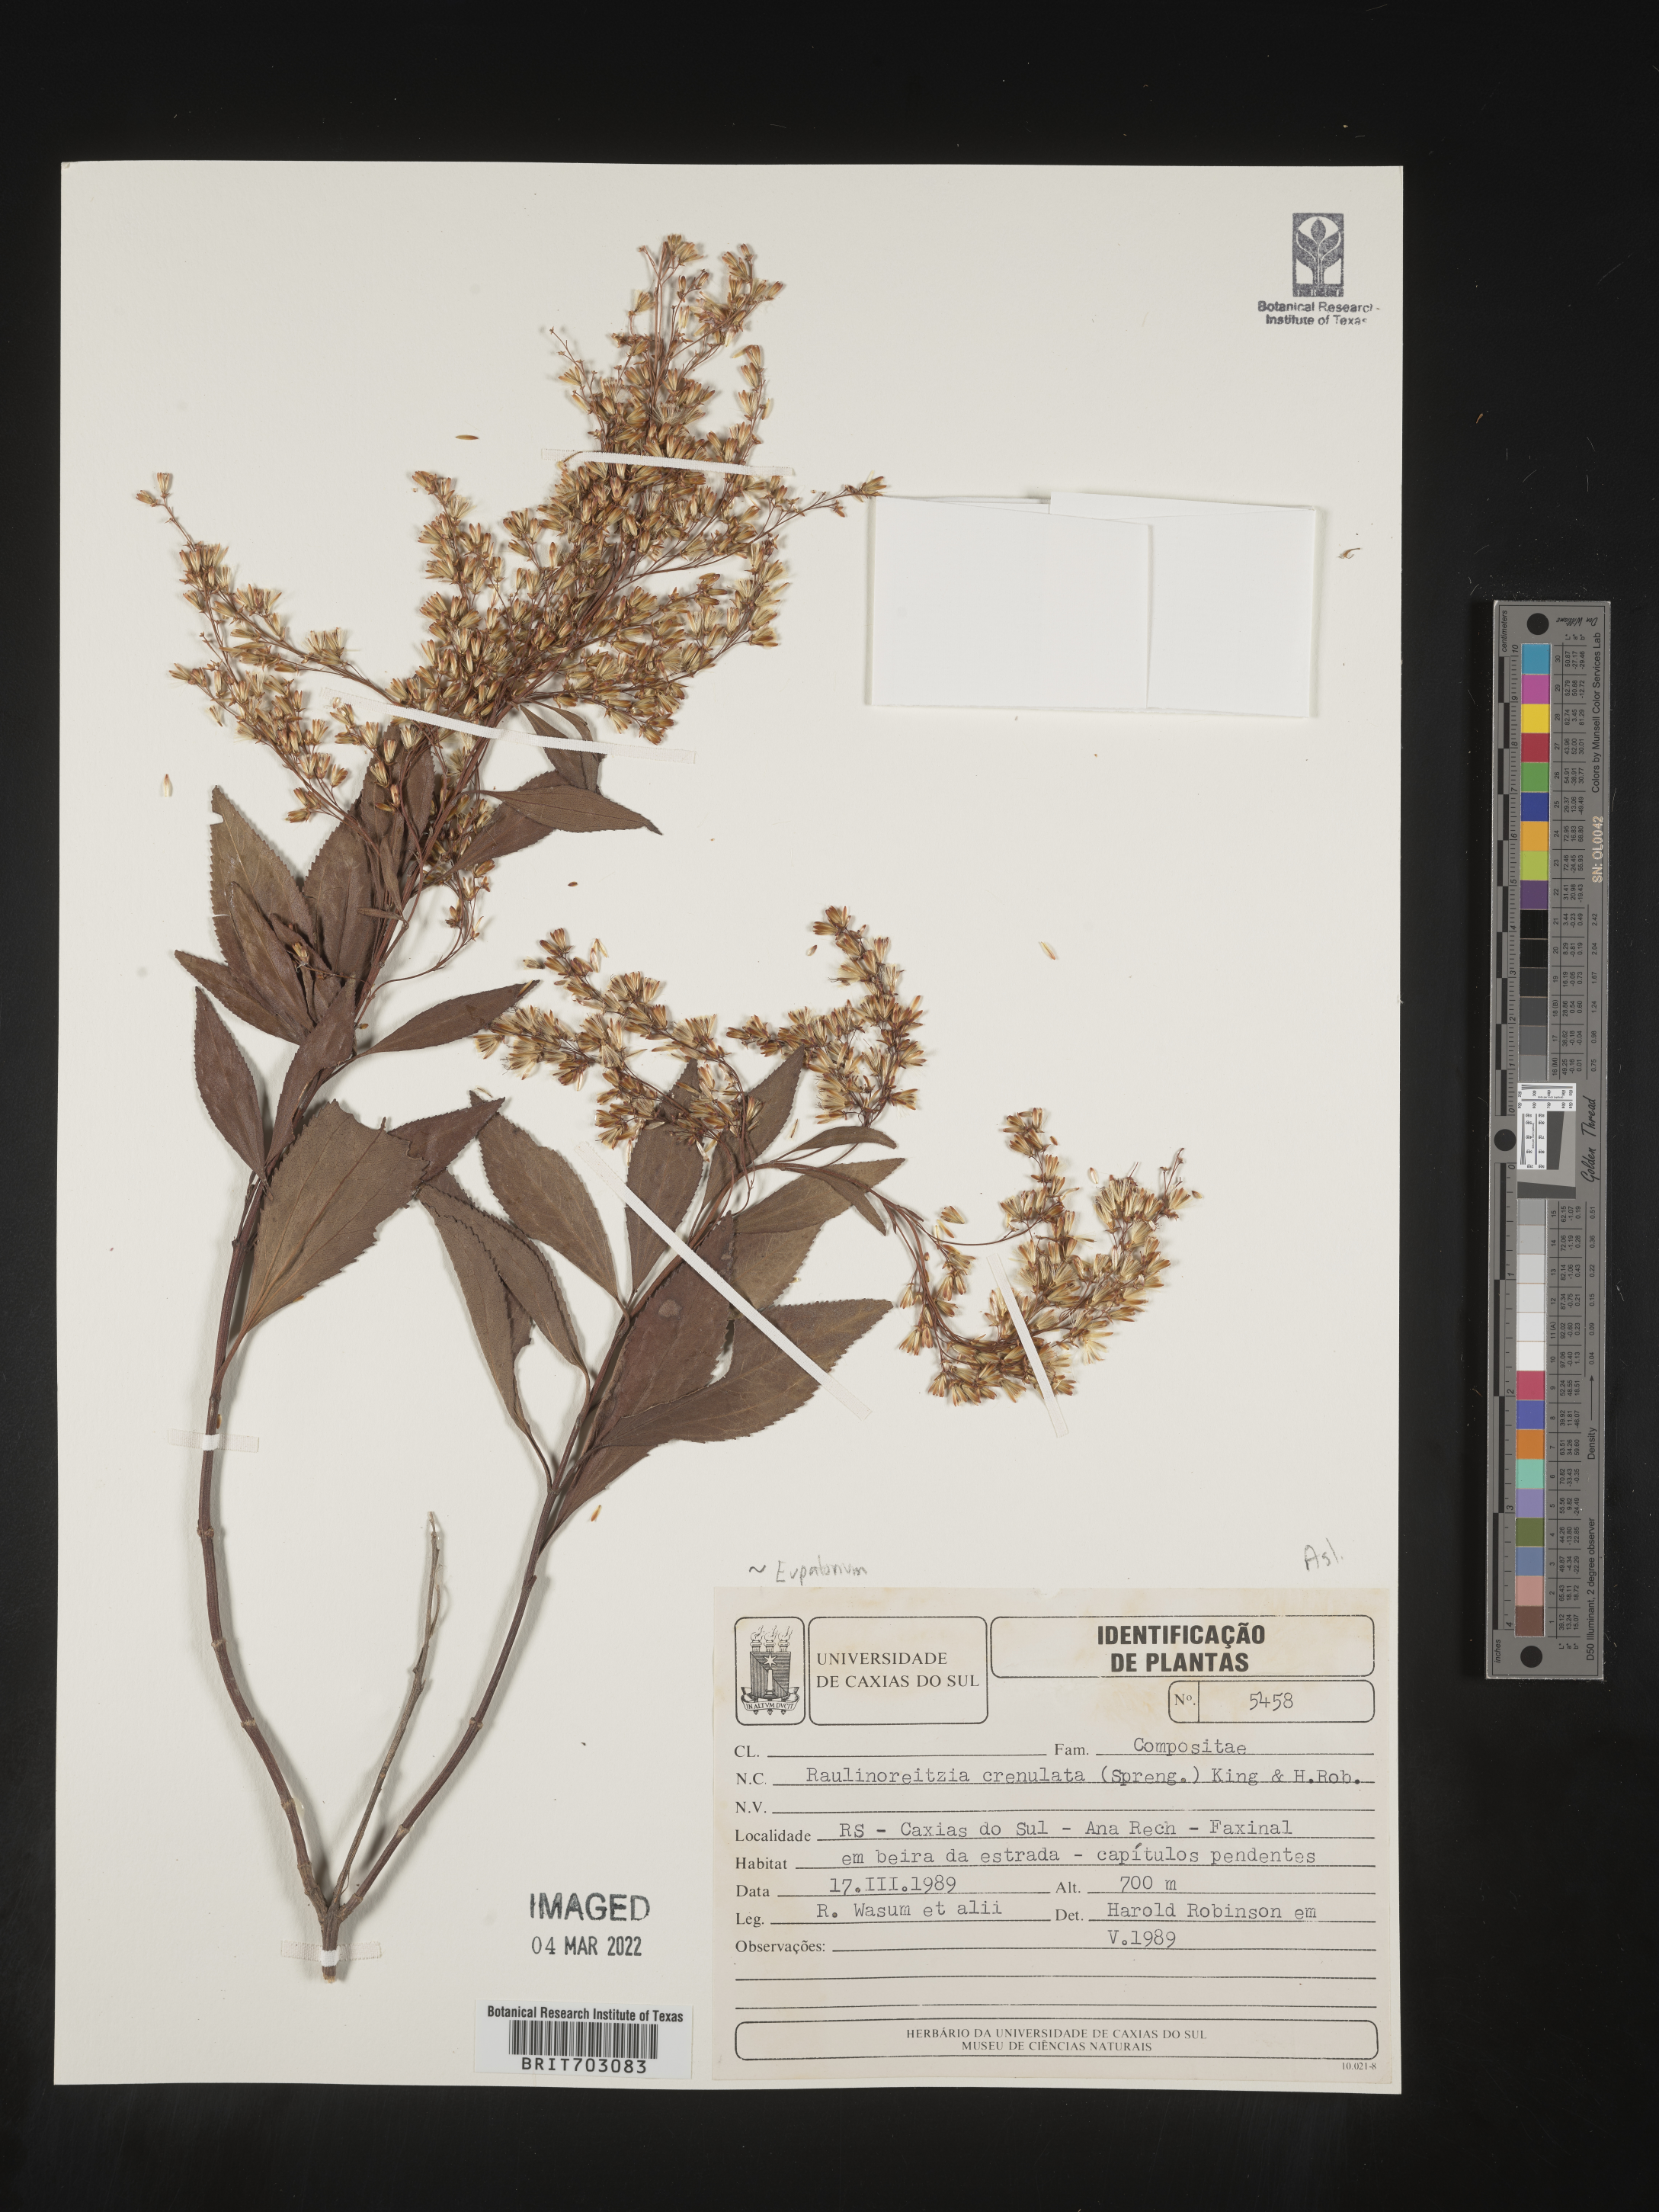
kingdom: Plantae
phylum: Tracheophyta
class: Magnoliopsida
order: Asterales
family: Asteraceae
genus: Eupatorium
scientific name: Eupatorium
